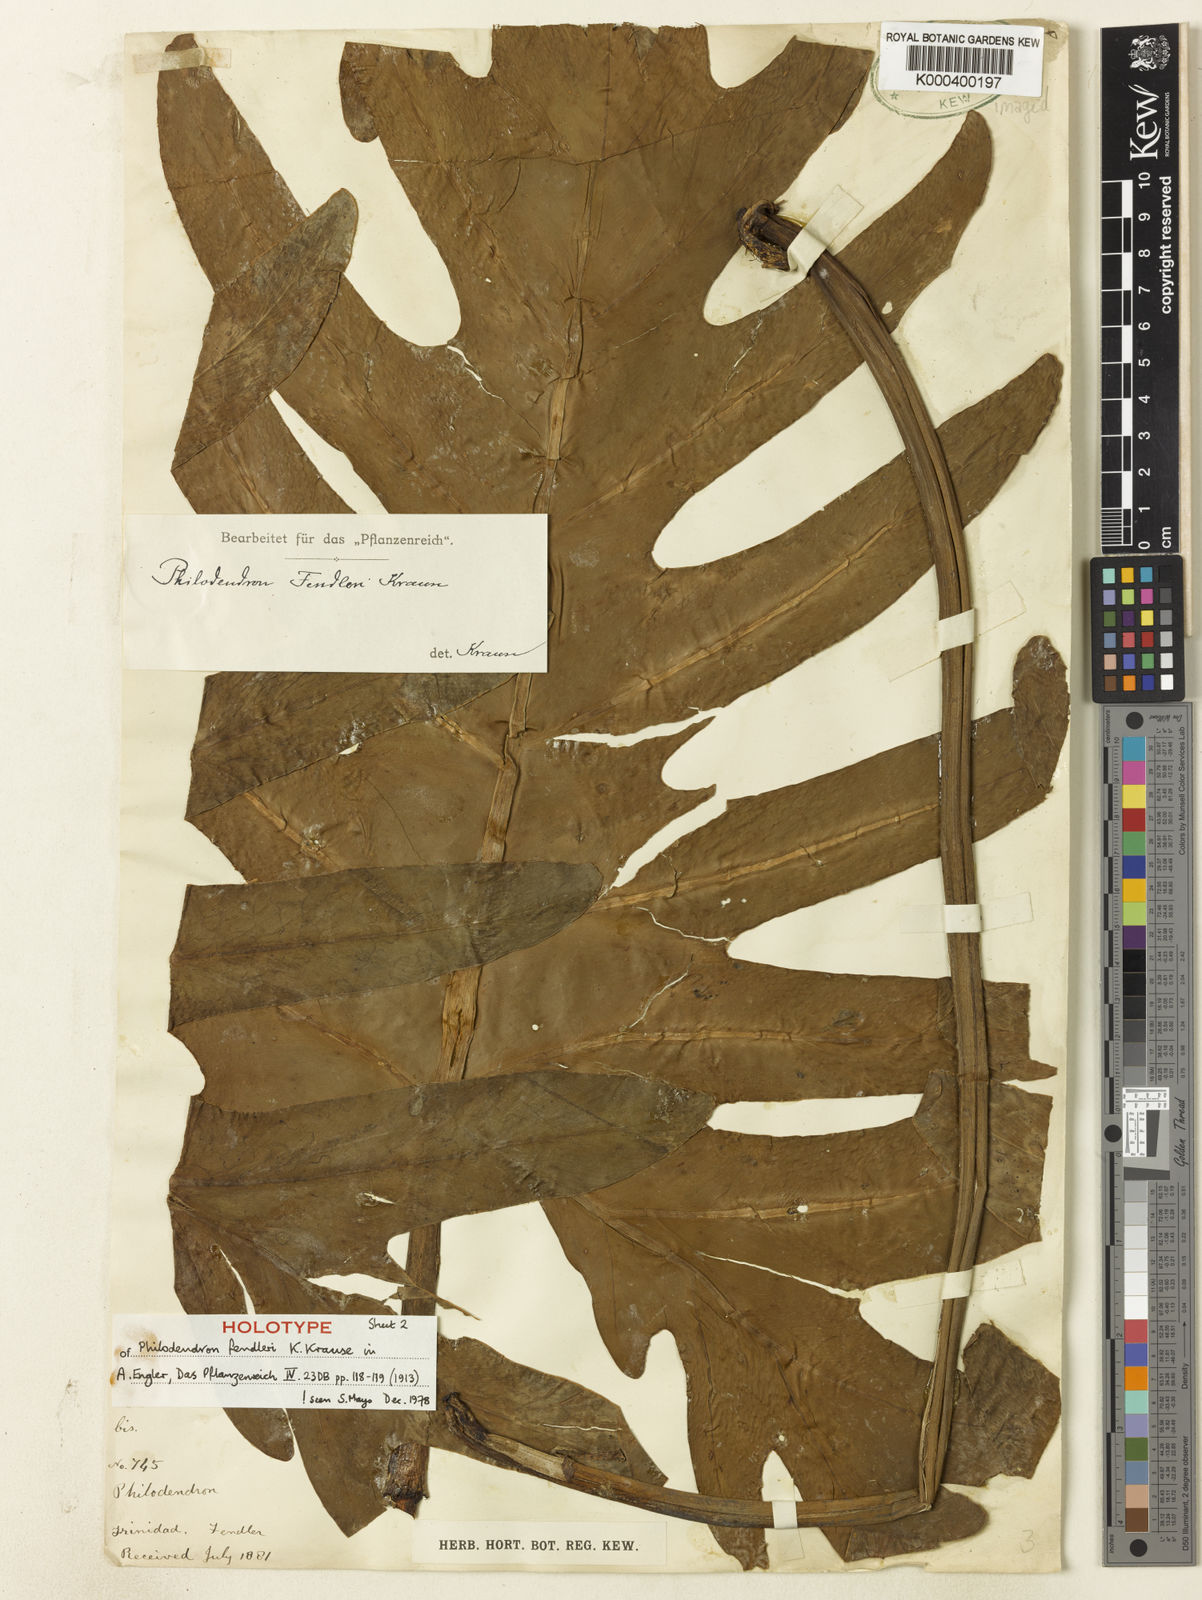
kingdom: Plantae
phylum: Tracheophyta
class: Liliopsida
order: Alismatales
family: Araceae
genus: Philodendron
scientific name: Philodendron fendleri
